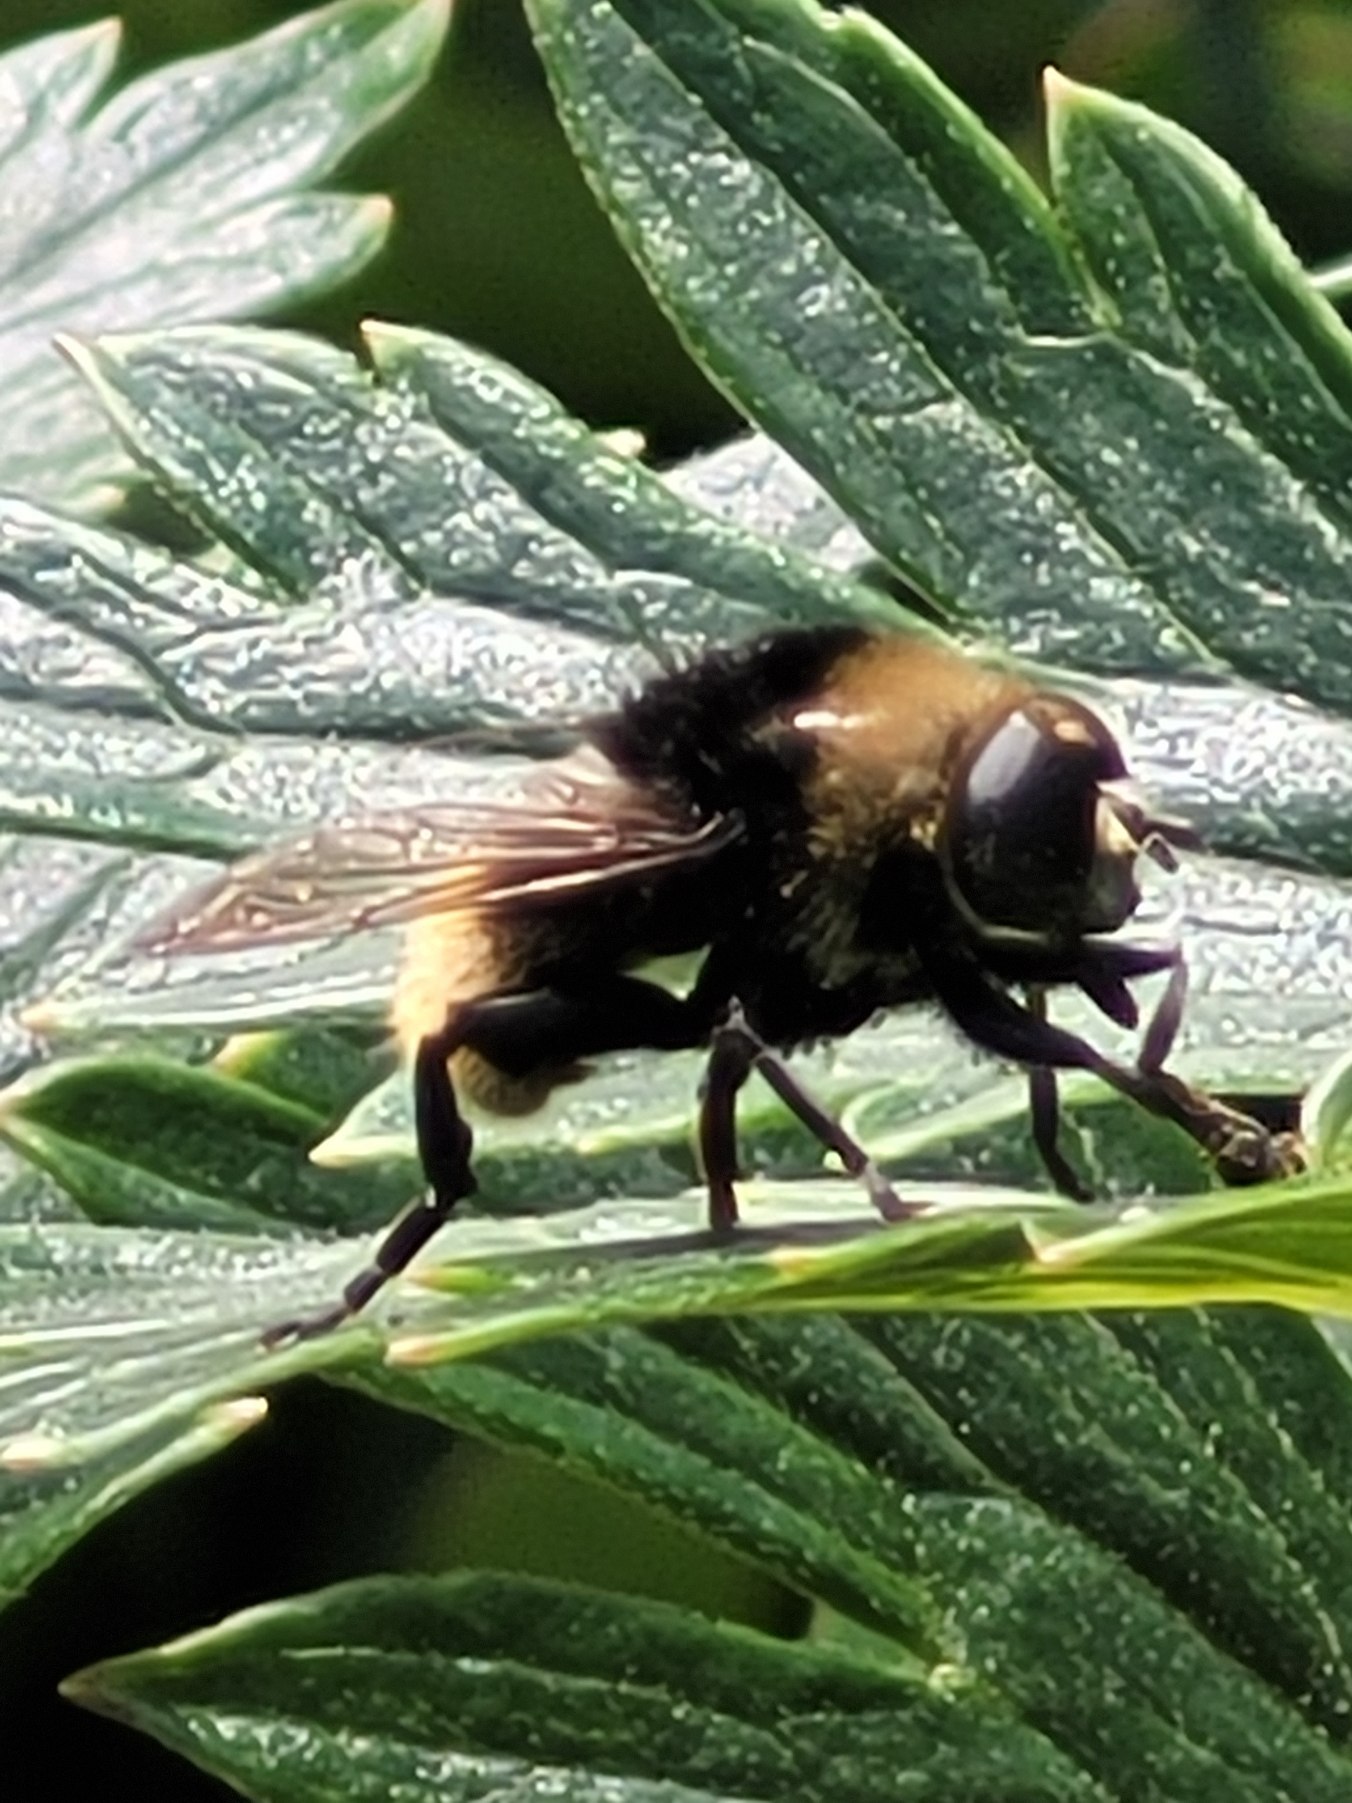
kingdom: Animalia
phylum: Arthropoda
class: Insecta
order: Diptera
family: Syrphidae
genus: Merodon
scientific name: Merodon equestris
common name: Stor narcisflue
